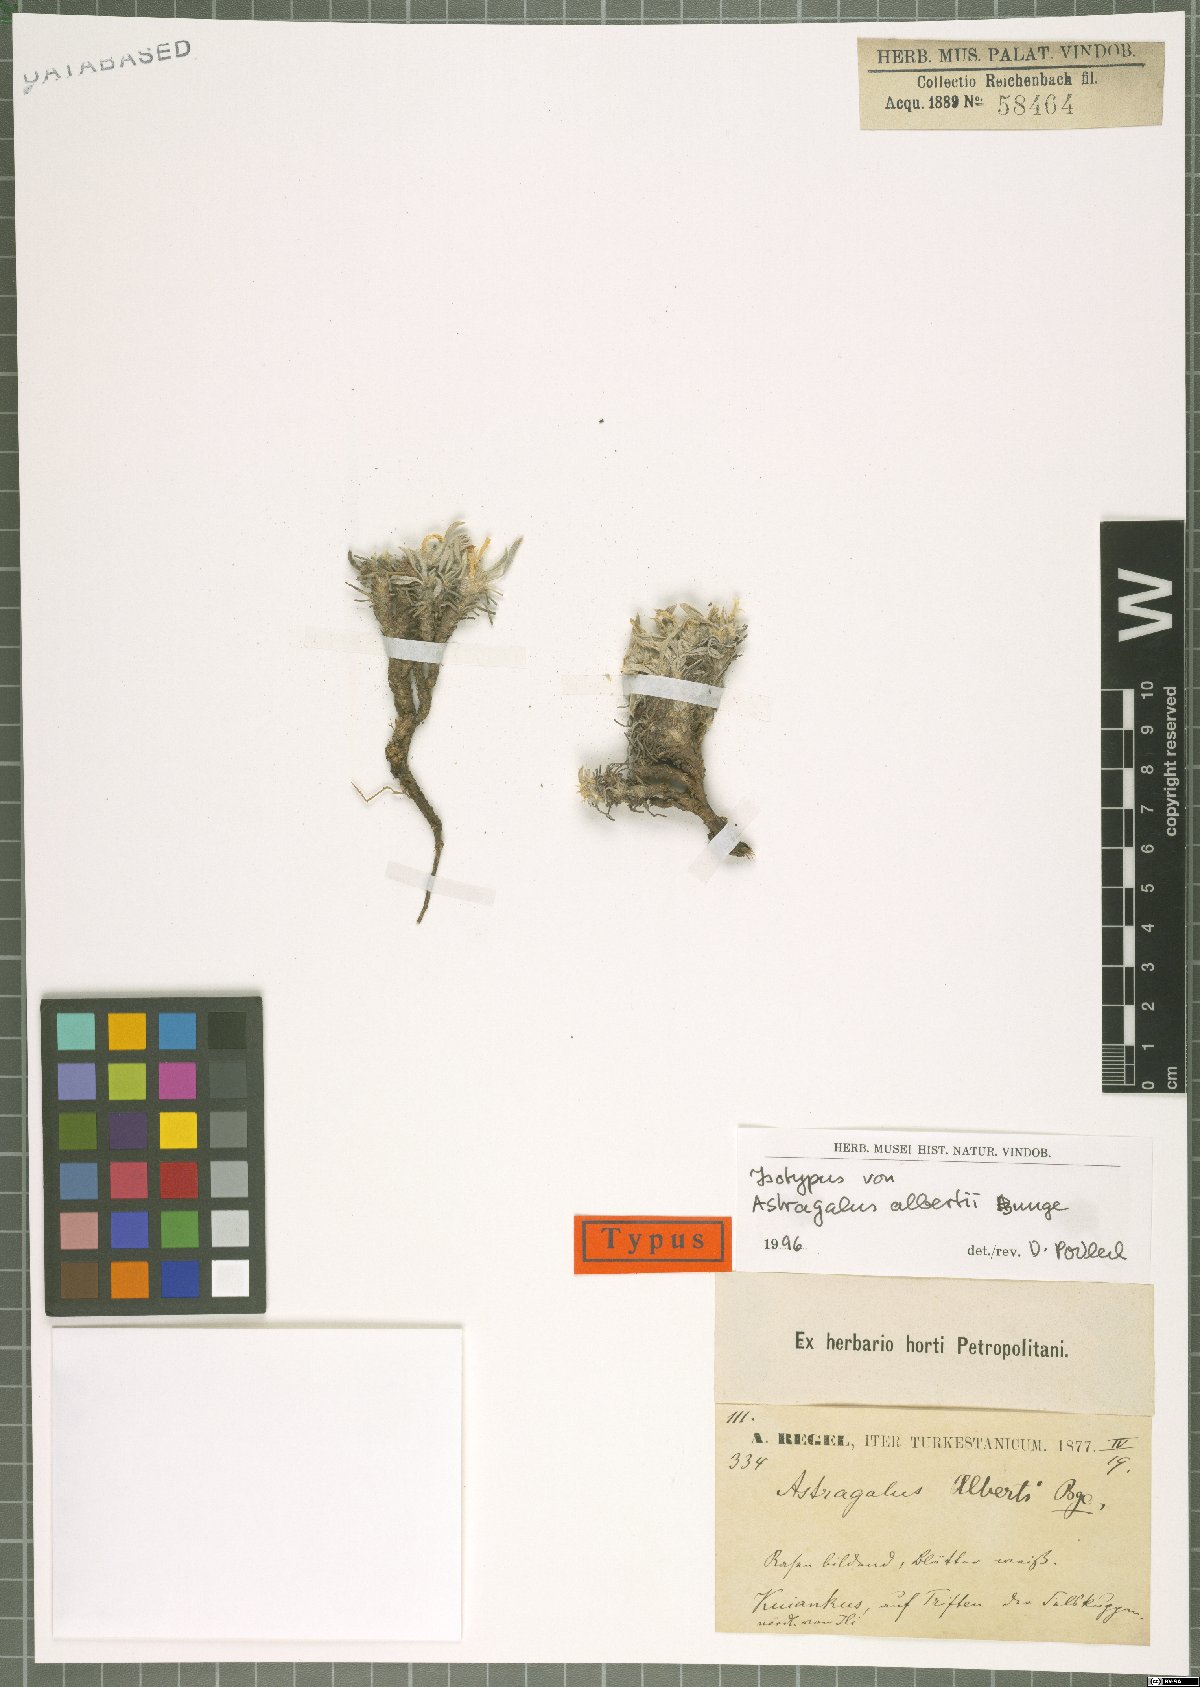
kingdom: Plantae
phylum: Tracheophyta
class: Magnoliopsida
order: Fabales
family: Fabaceae
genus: Astragalus
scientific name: Astragalus alberti
